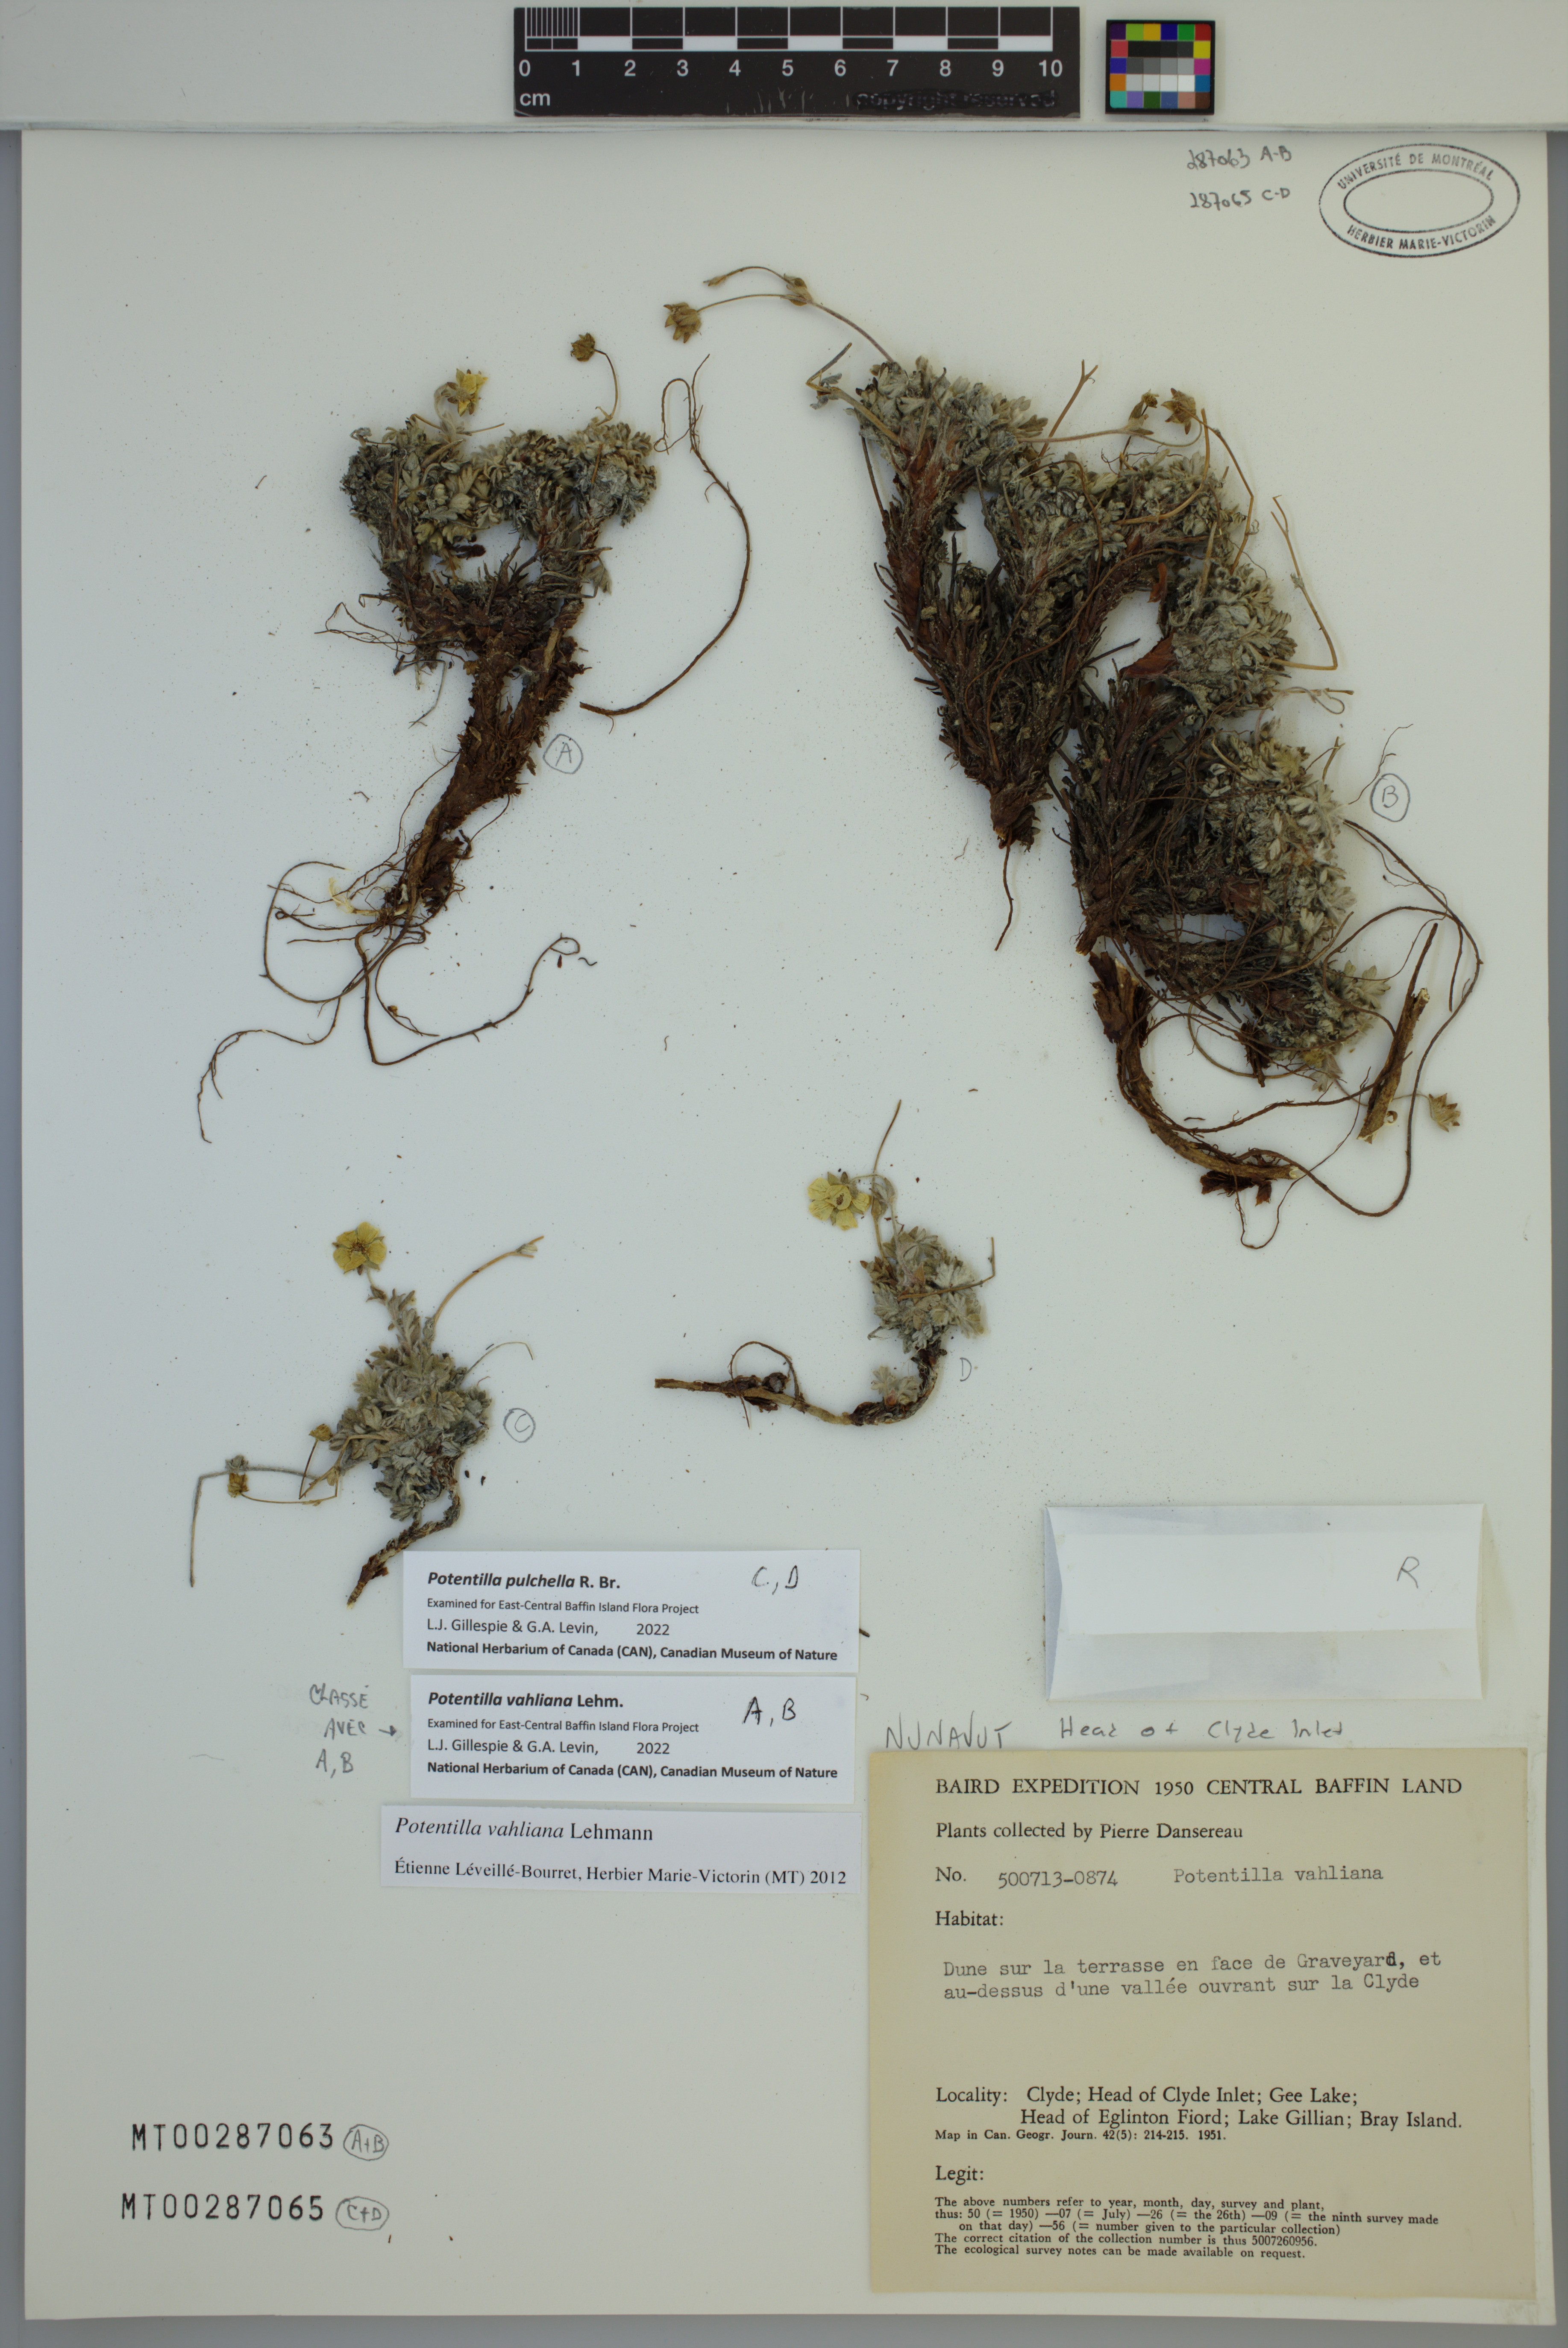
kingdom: Plantae
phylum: Tracheophyta
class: Magnoliopsida
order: Rosales
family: Rosaceae
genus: Potentilla
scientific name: Potentilla vahliana
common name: Vahl's cinquefoil
